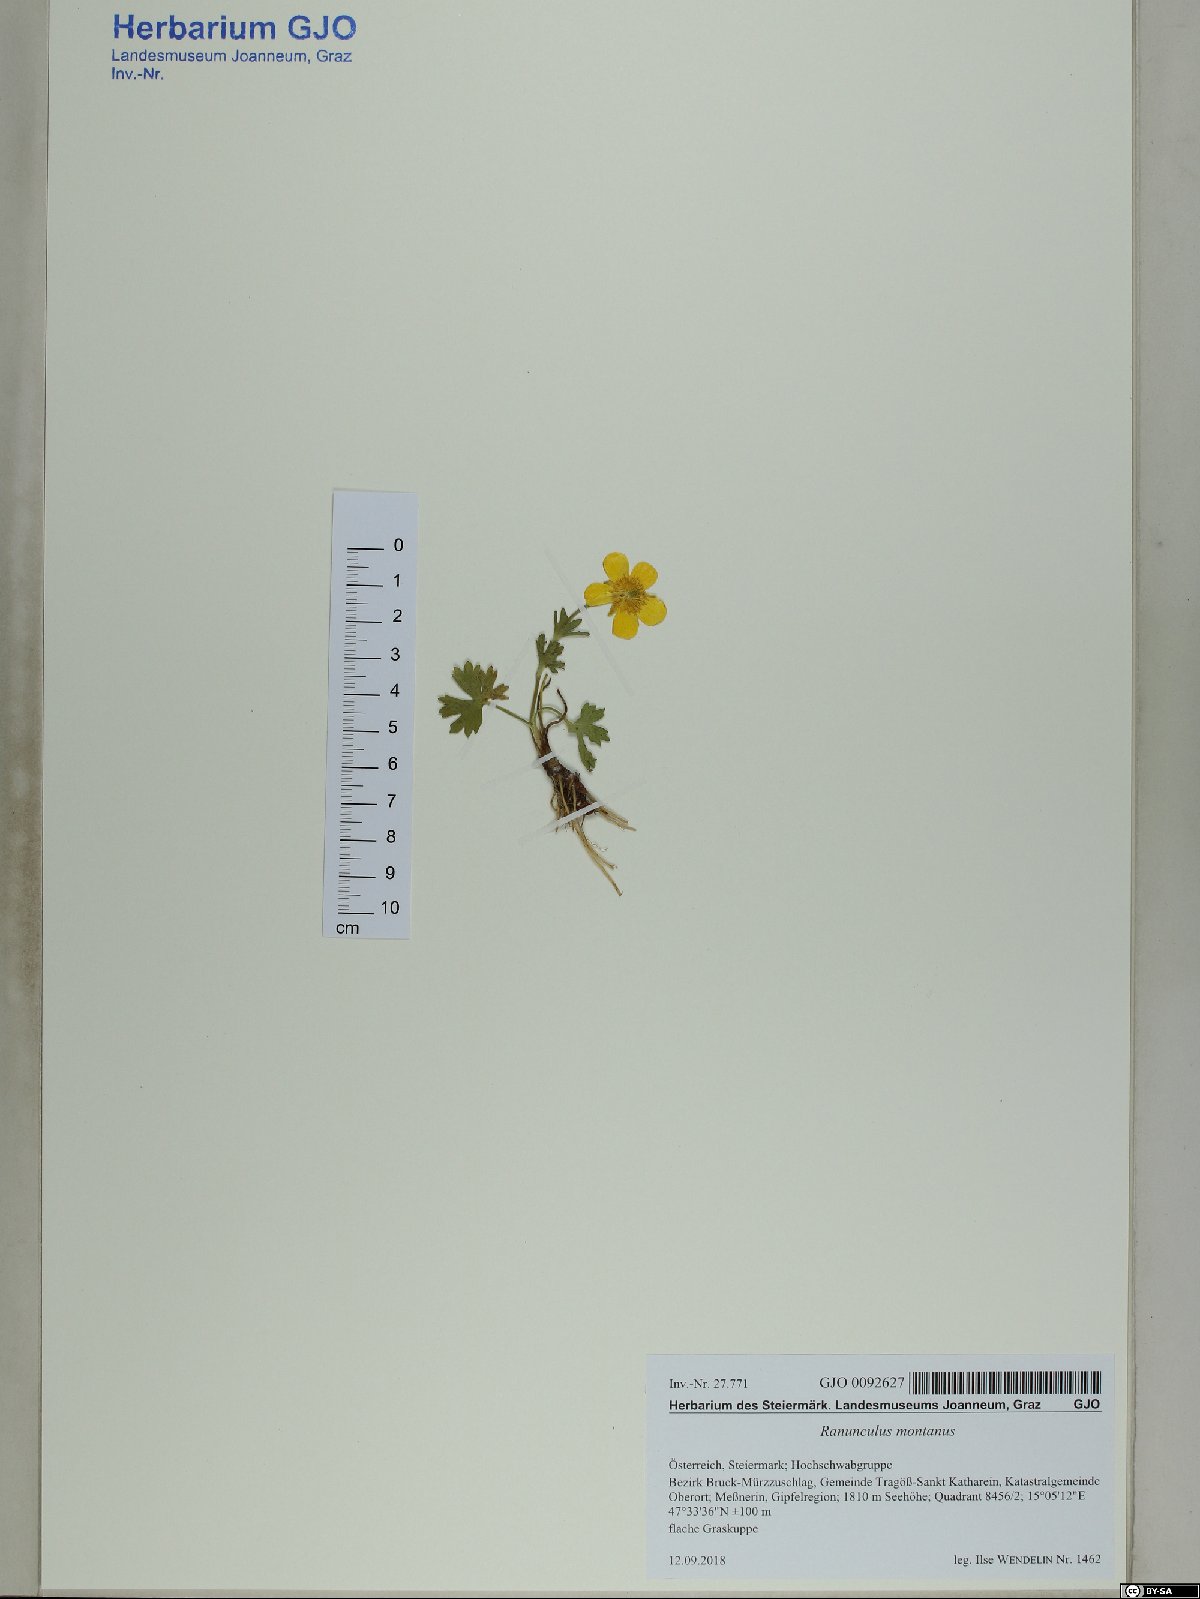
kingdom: Plantae
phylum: Tracheophyta
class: Magnoliopsida
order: Ranunculales
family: Ranunculaceae
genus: Ranunculus
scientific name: Ranunculus montanus
